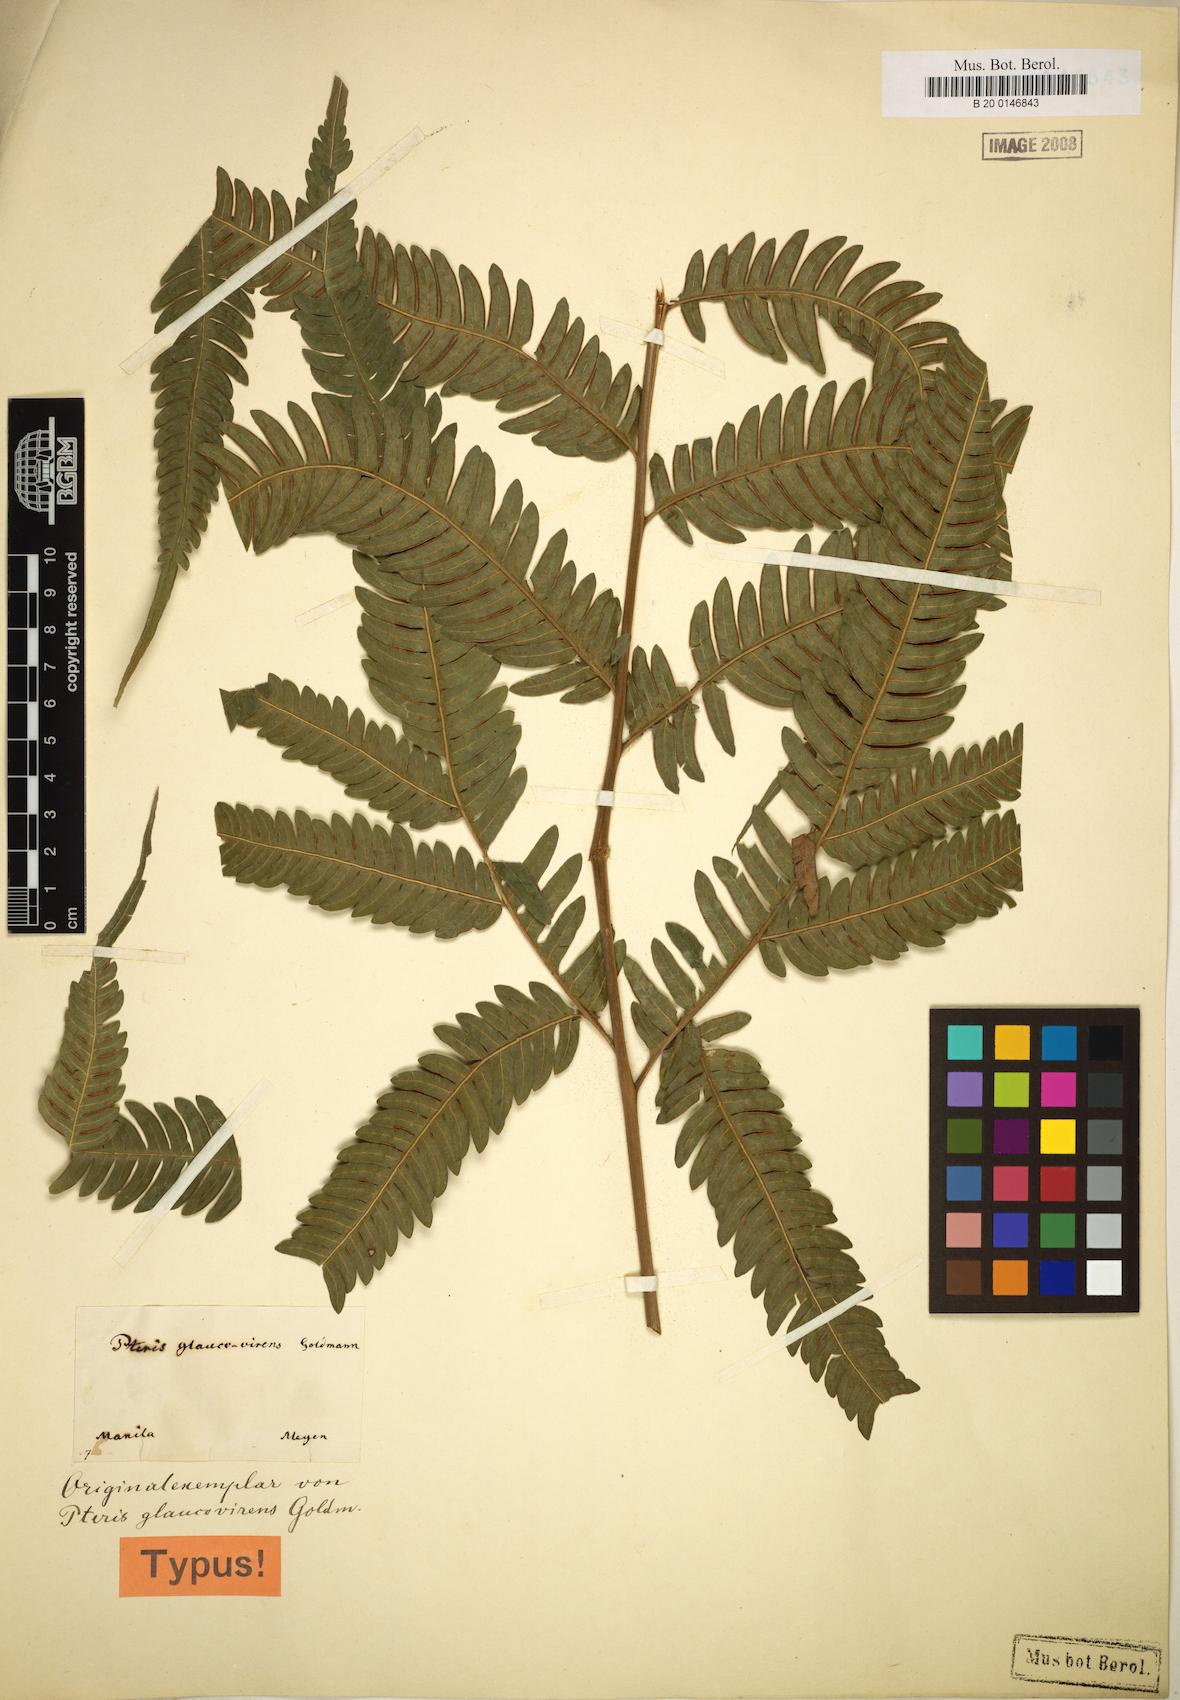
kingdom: Plantae
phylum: Tracheophyta
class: Polypodiopsida
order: Polypodiales
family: Pteridaceae
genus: Pteris
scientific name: Pteris glaucovirens
